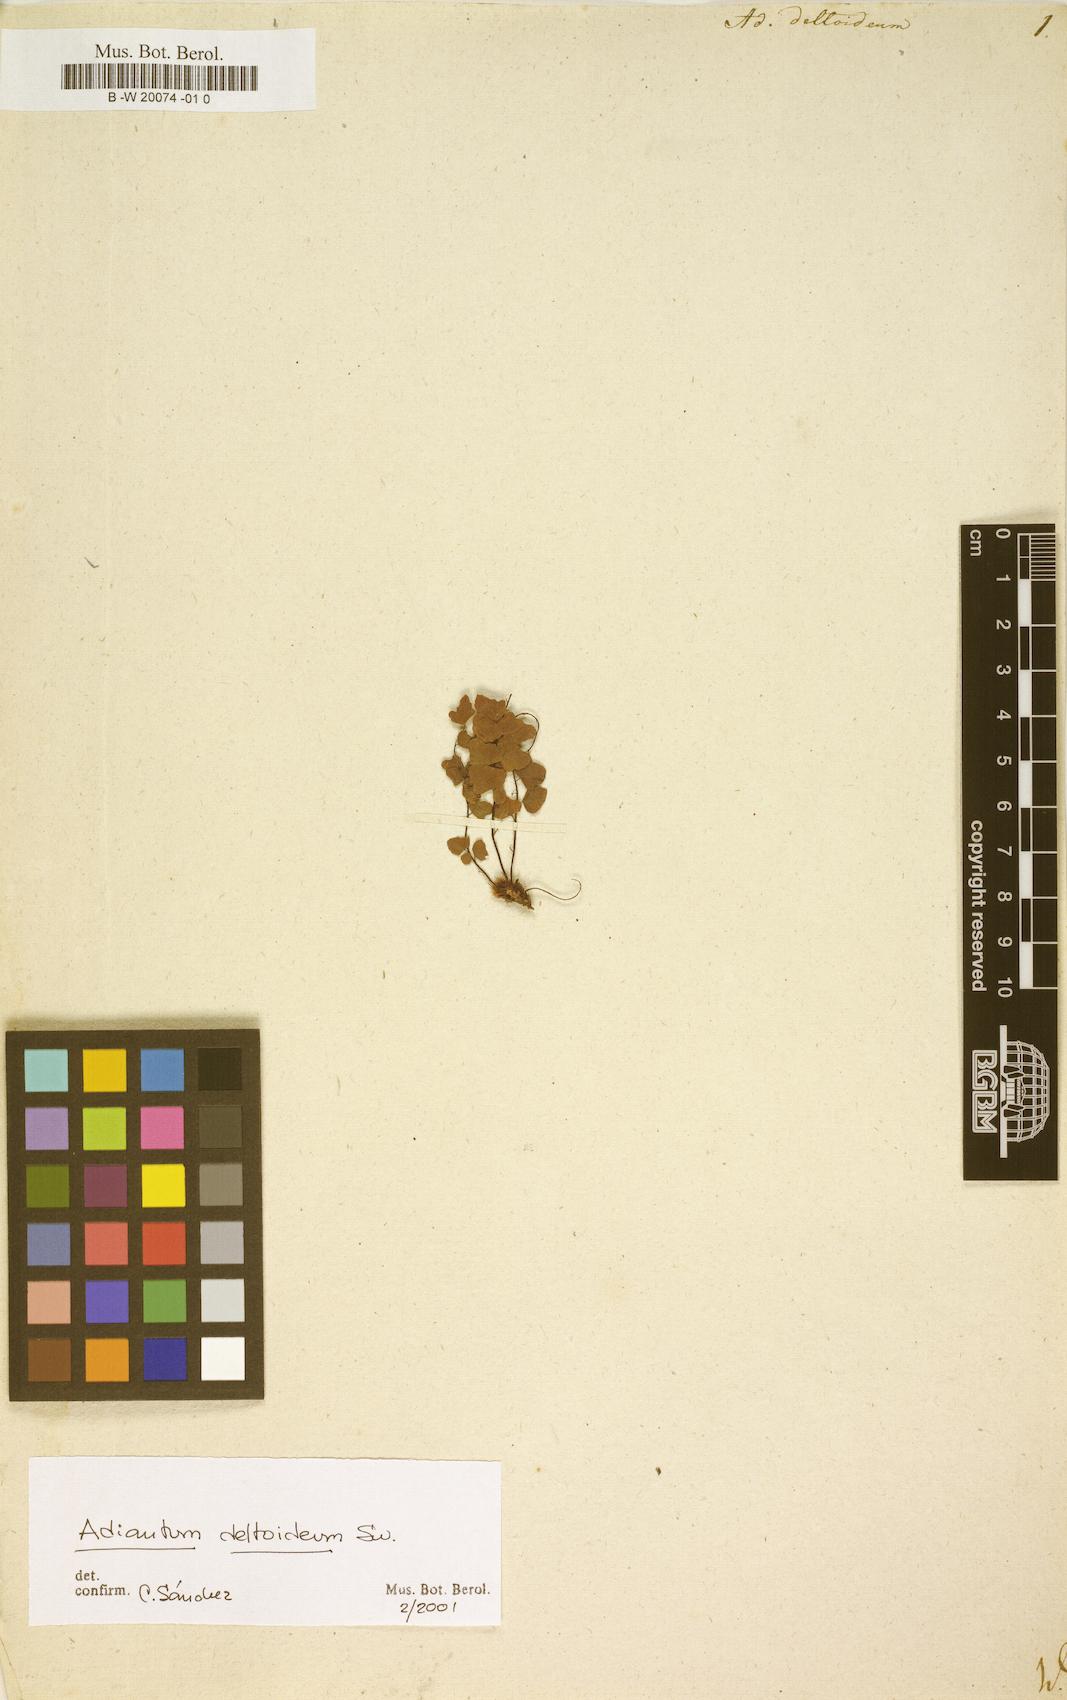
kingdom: Plantae
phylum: Tracheophyta
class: Polypodiopsida
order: Polypodiales
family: Pteridaceae
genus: Adiantum
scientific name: Adiantum deltoideum
